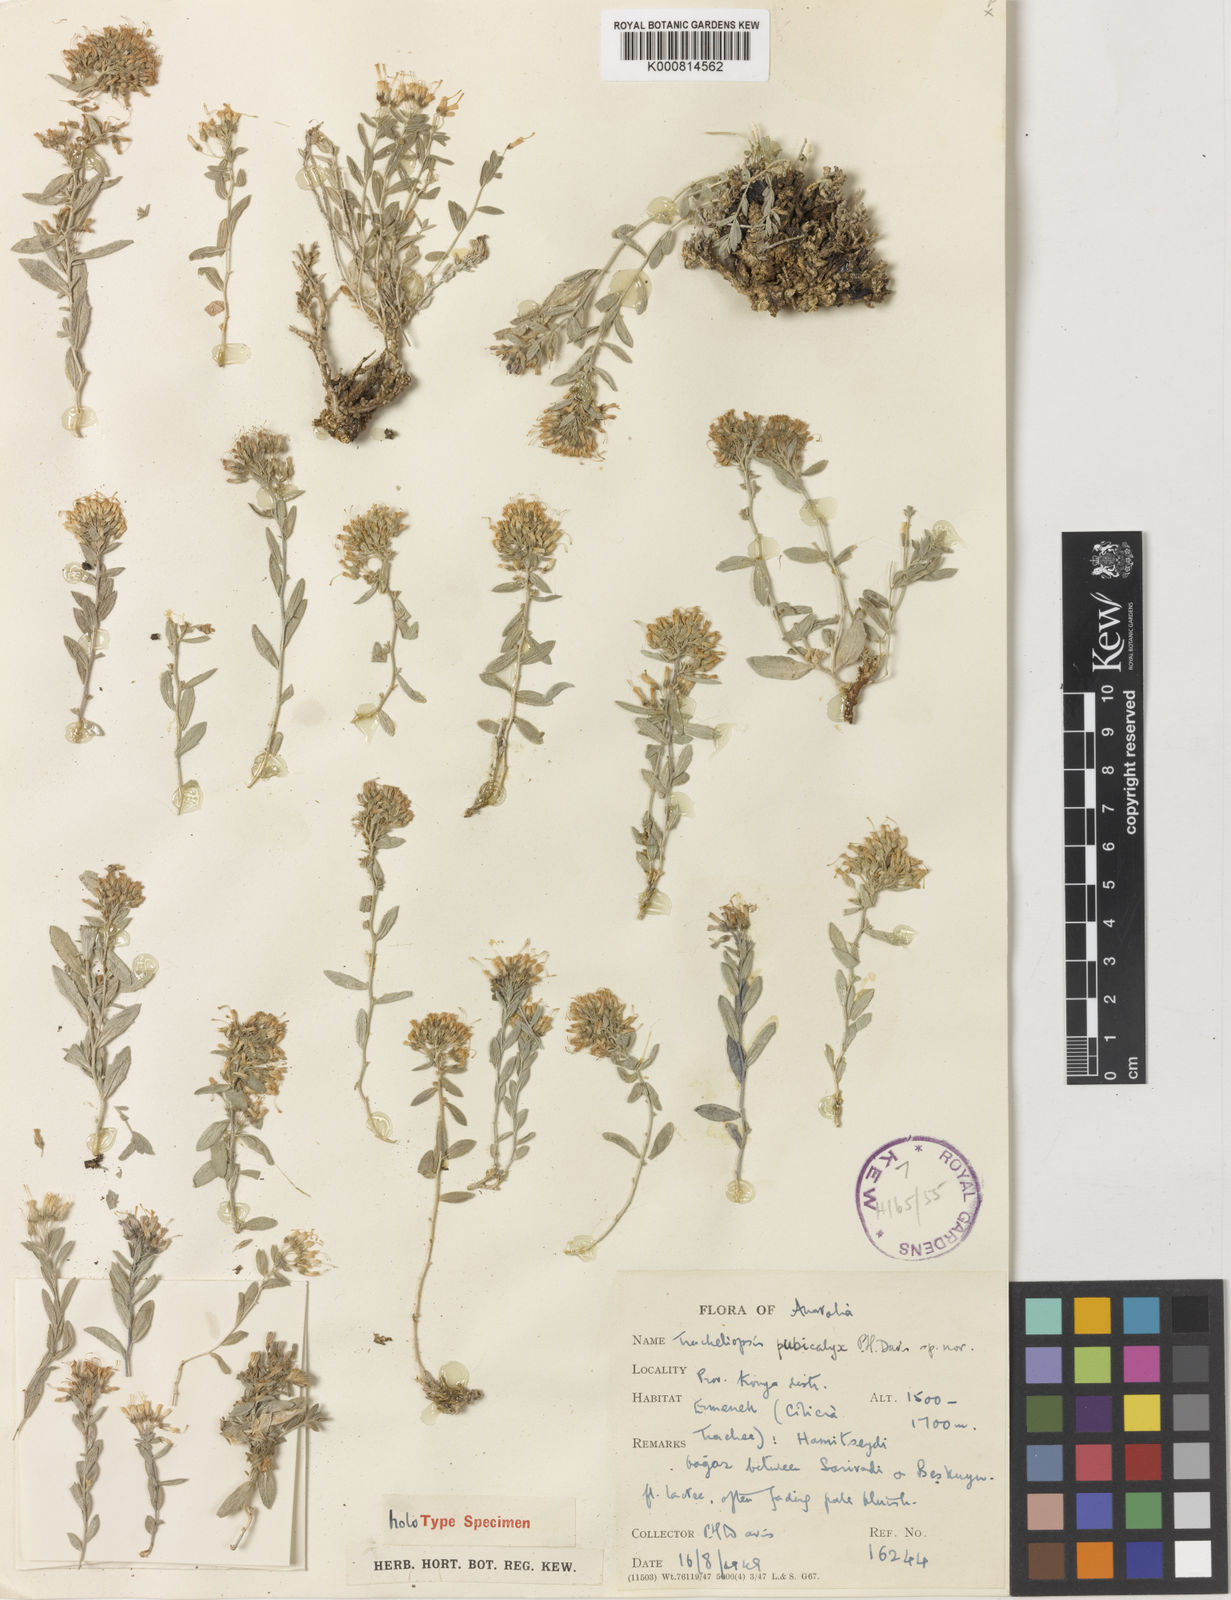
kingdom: Plantae
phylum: Tracheophyta
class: Magnoliopsida
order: Asterales
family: Campanulaceae
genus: Campanula
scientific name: Campanula pubicalyx
